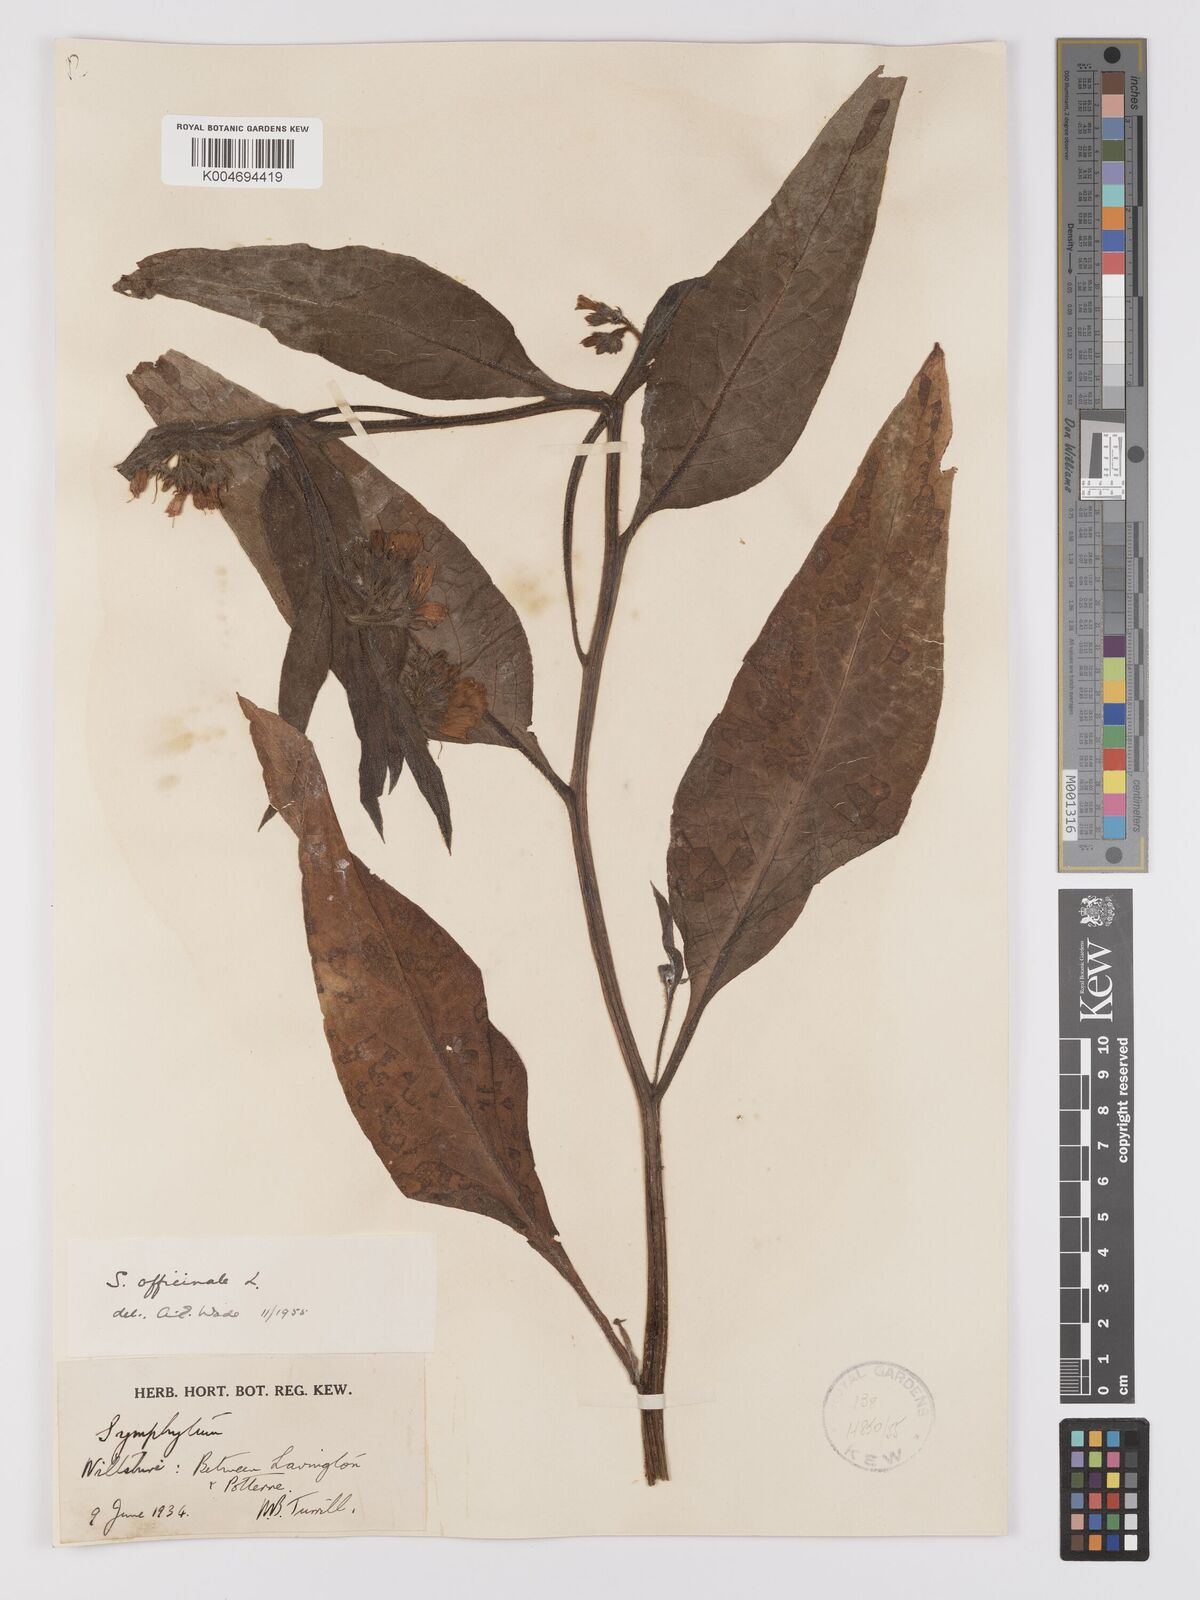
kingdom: Plantae
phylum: Tracheophyta
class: Magnoliopsida
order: Boraginales
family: Boraginaceae
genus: Symphytum
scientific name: Symphytum officinale
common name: Common comfrey
